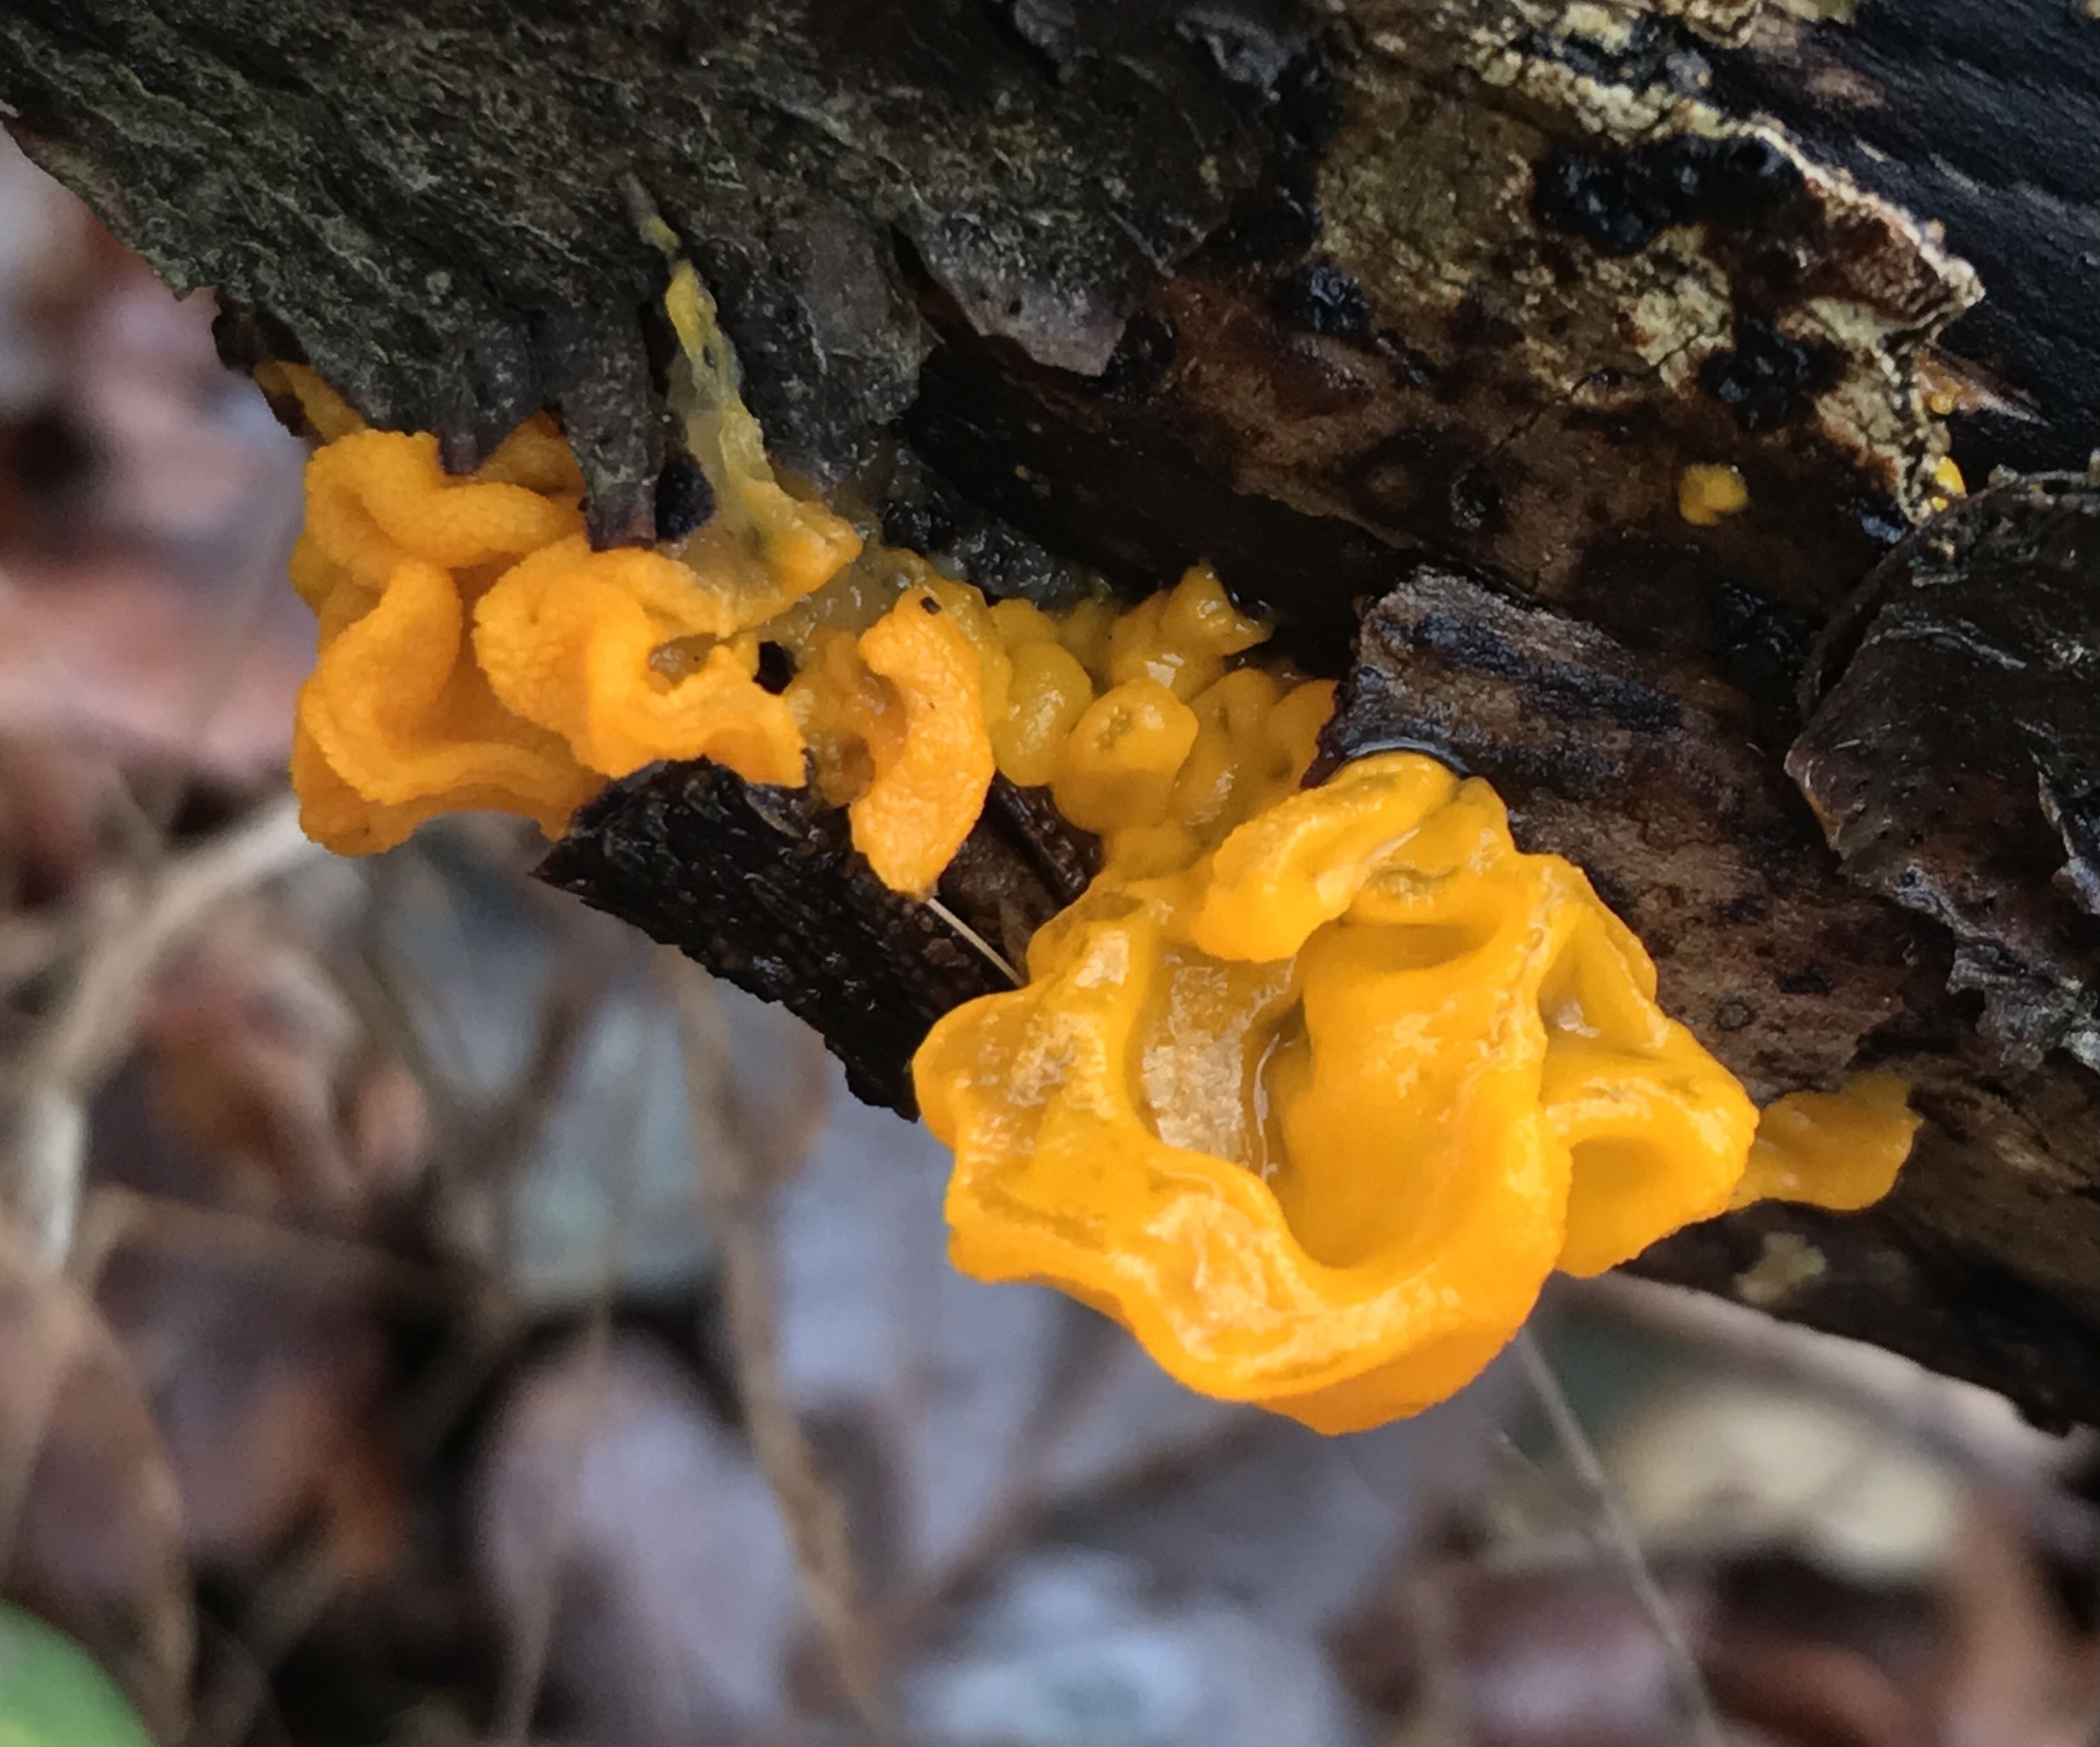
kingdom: Fungi
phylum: Basidiomycota
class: Tremellomycetes
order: Tremellales
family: Tremellaceae
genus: Tremella
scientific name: Tremella mesenterica
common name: gul bævresvamp
